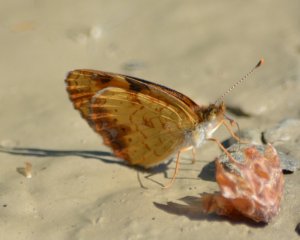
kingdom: Animalia
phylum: Arthropoda
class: Insecta
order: Lepidoptera
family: Nymphalidae
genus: Phyciodes
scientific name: Phyciodes tharos
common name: Northern Crescent
